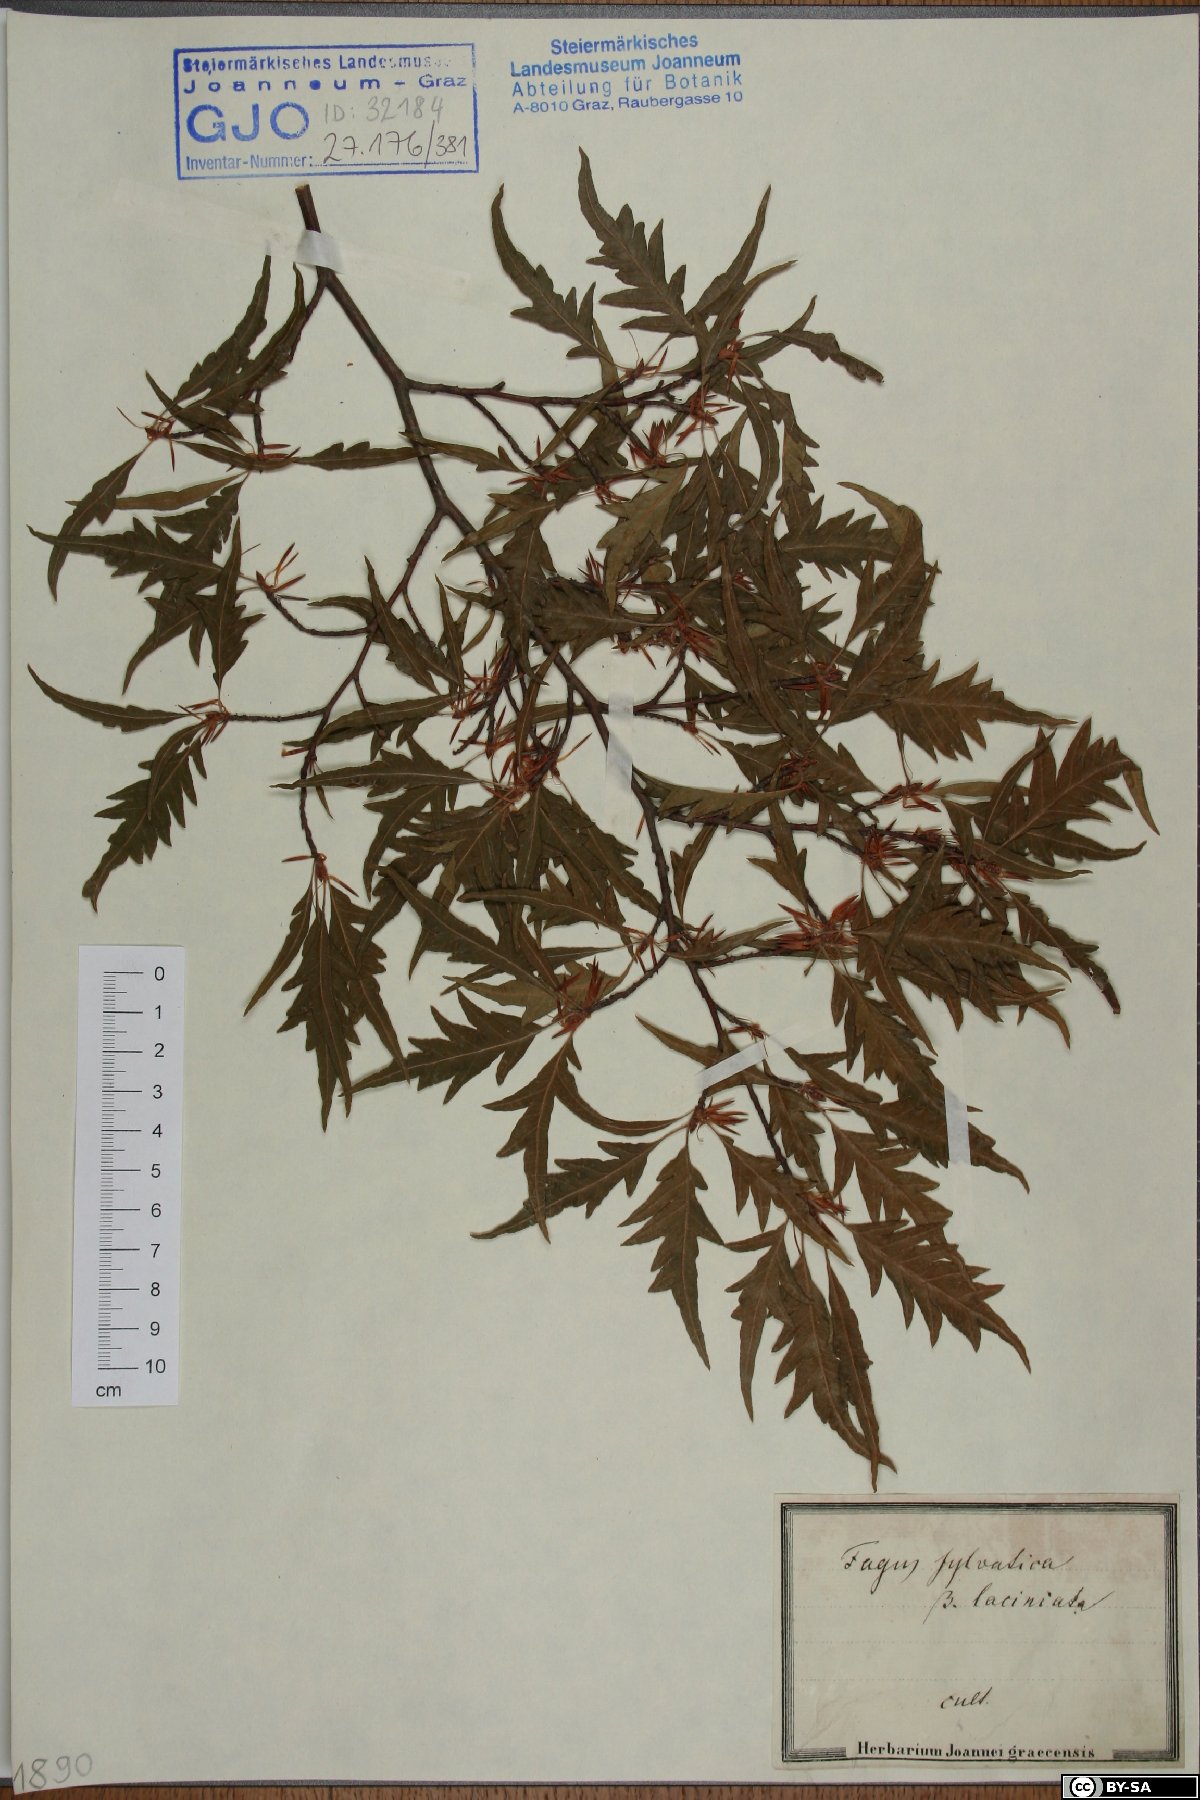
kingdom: Plantae
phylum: Tracheophyta
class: Magnoliopsida
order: Fagales
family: Fagaceae
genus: Fagus
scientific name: Fagus sylvatica
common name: Beech
